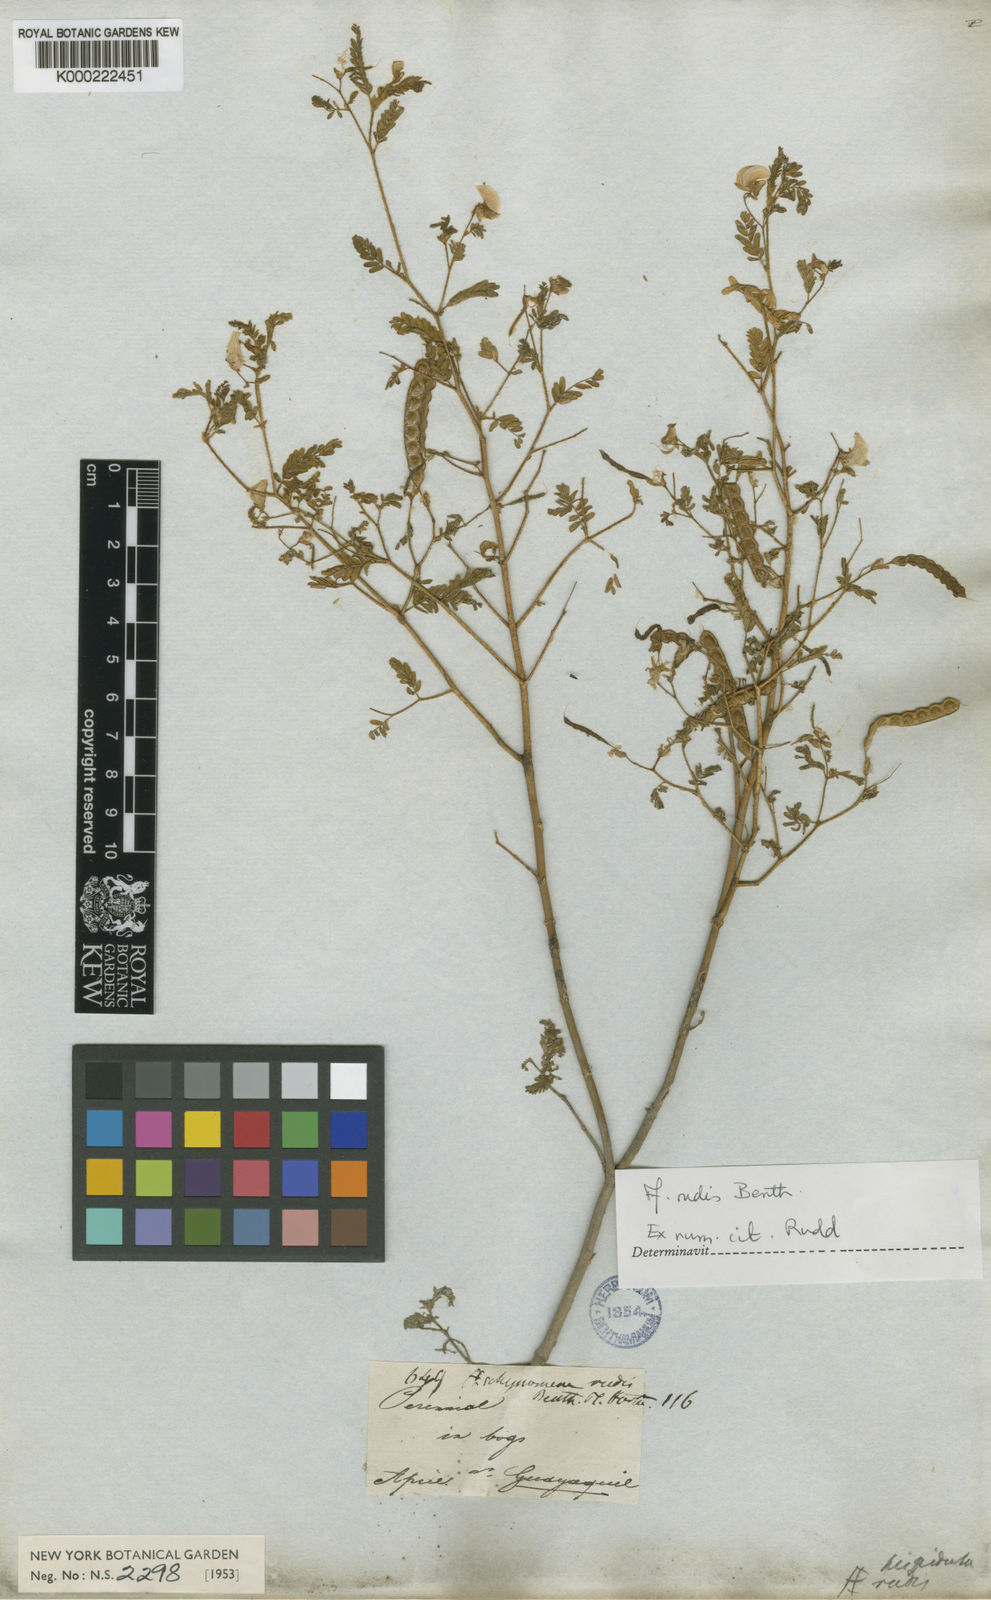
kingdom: Plantae
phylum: Tracheophyta
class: Magnoliopsida
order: Fabales
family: Fabaceae
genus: Aeschynomene
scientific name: Aeschynomene rudis
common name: Rough joint-vetch
